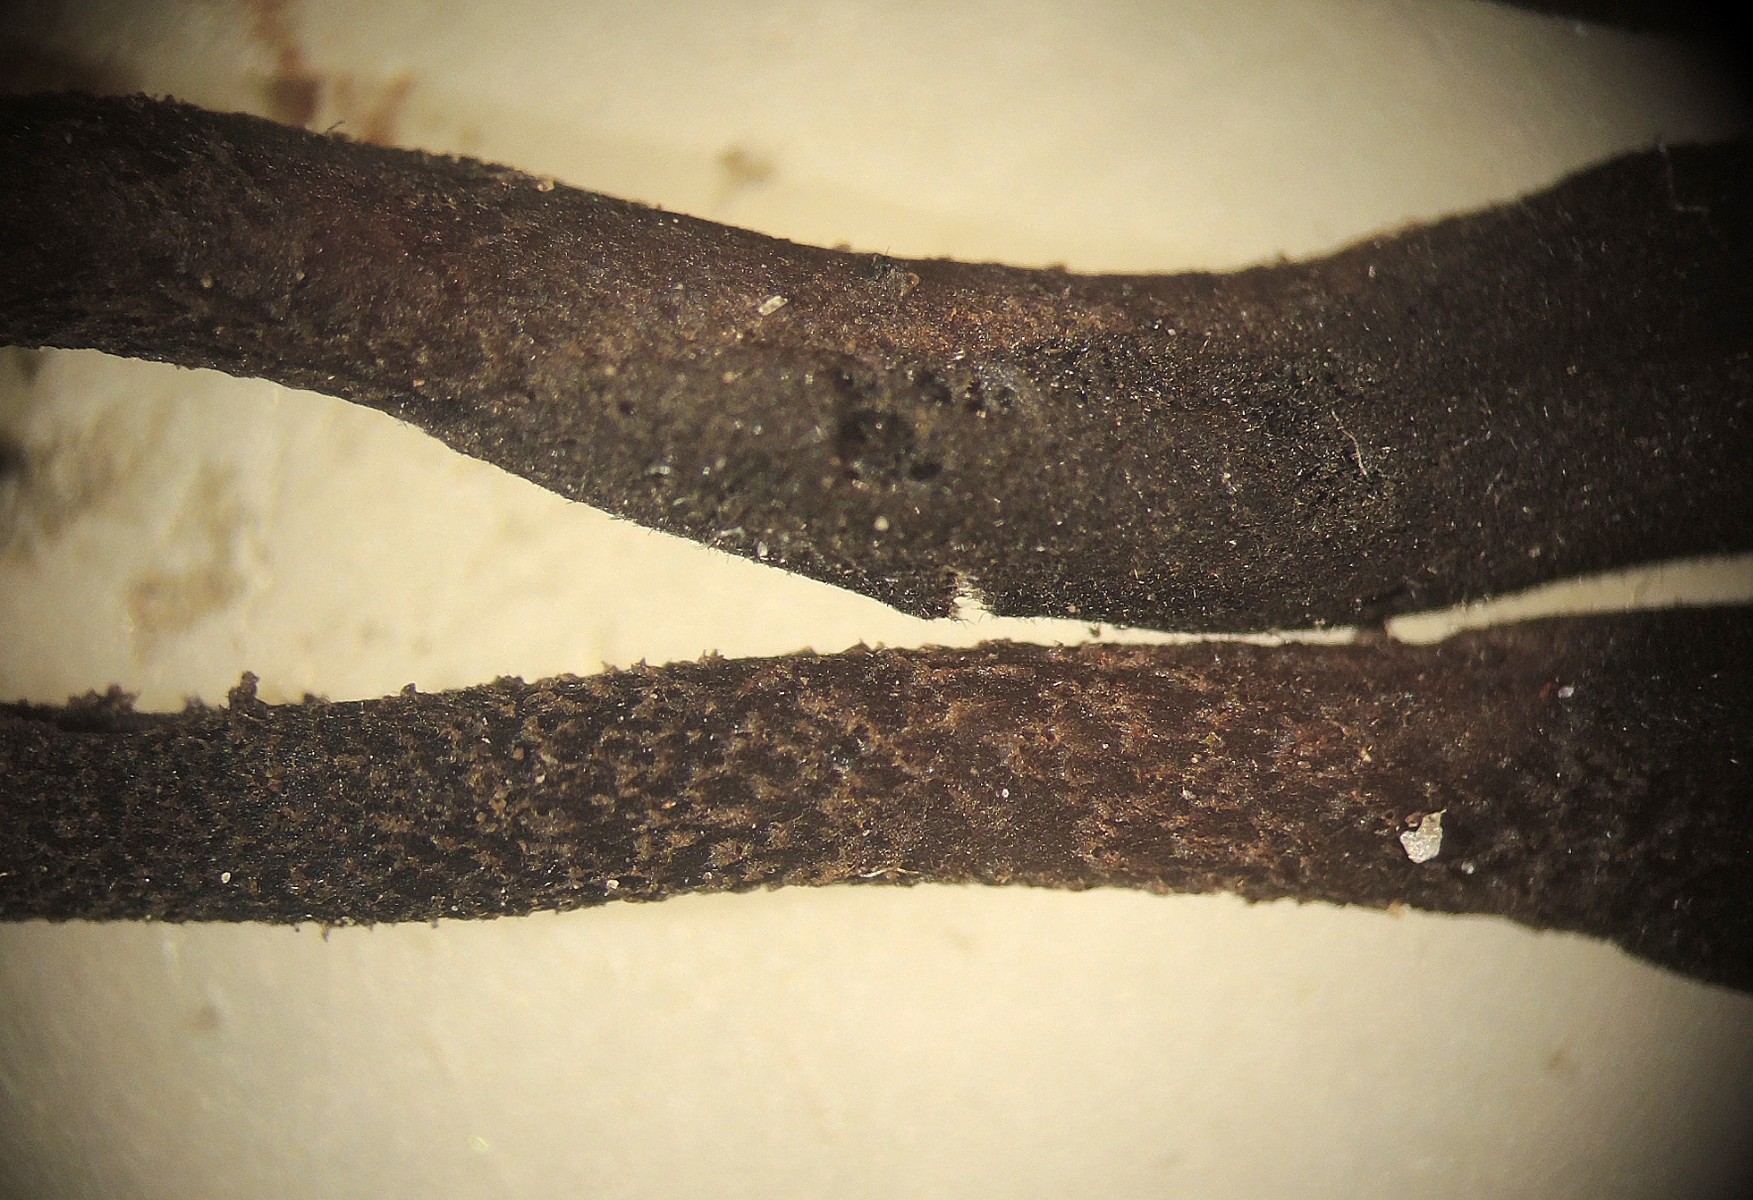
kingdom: Fungi
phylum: Ascomycota
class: Geoglossomycetes
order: Geoglossales
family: Geoglossaceae
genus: Geoglossum
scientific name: Geoglossum
